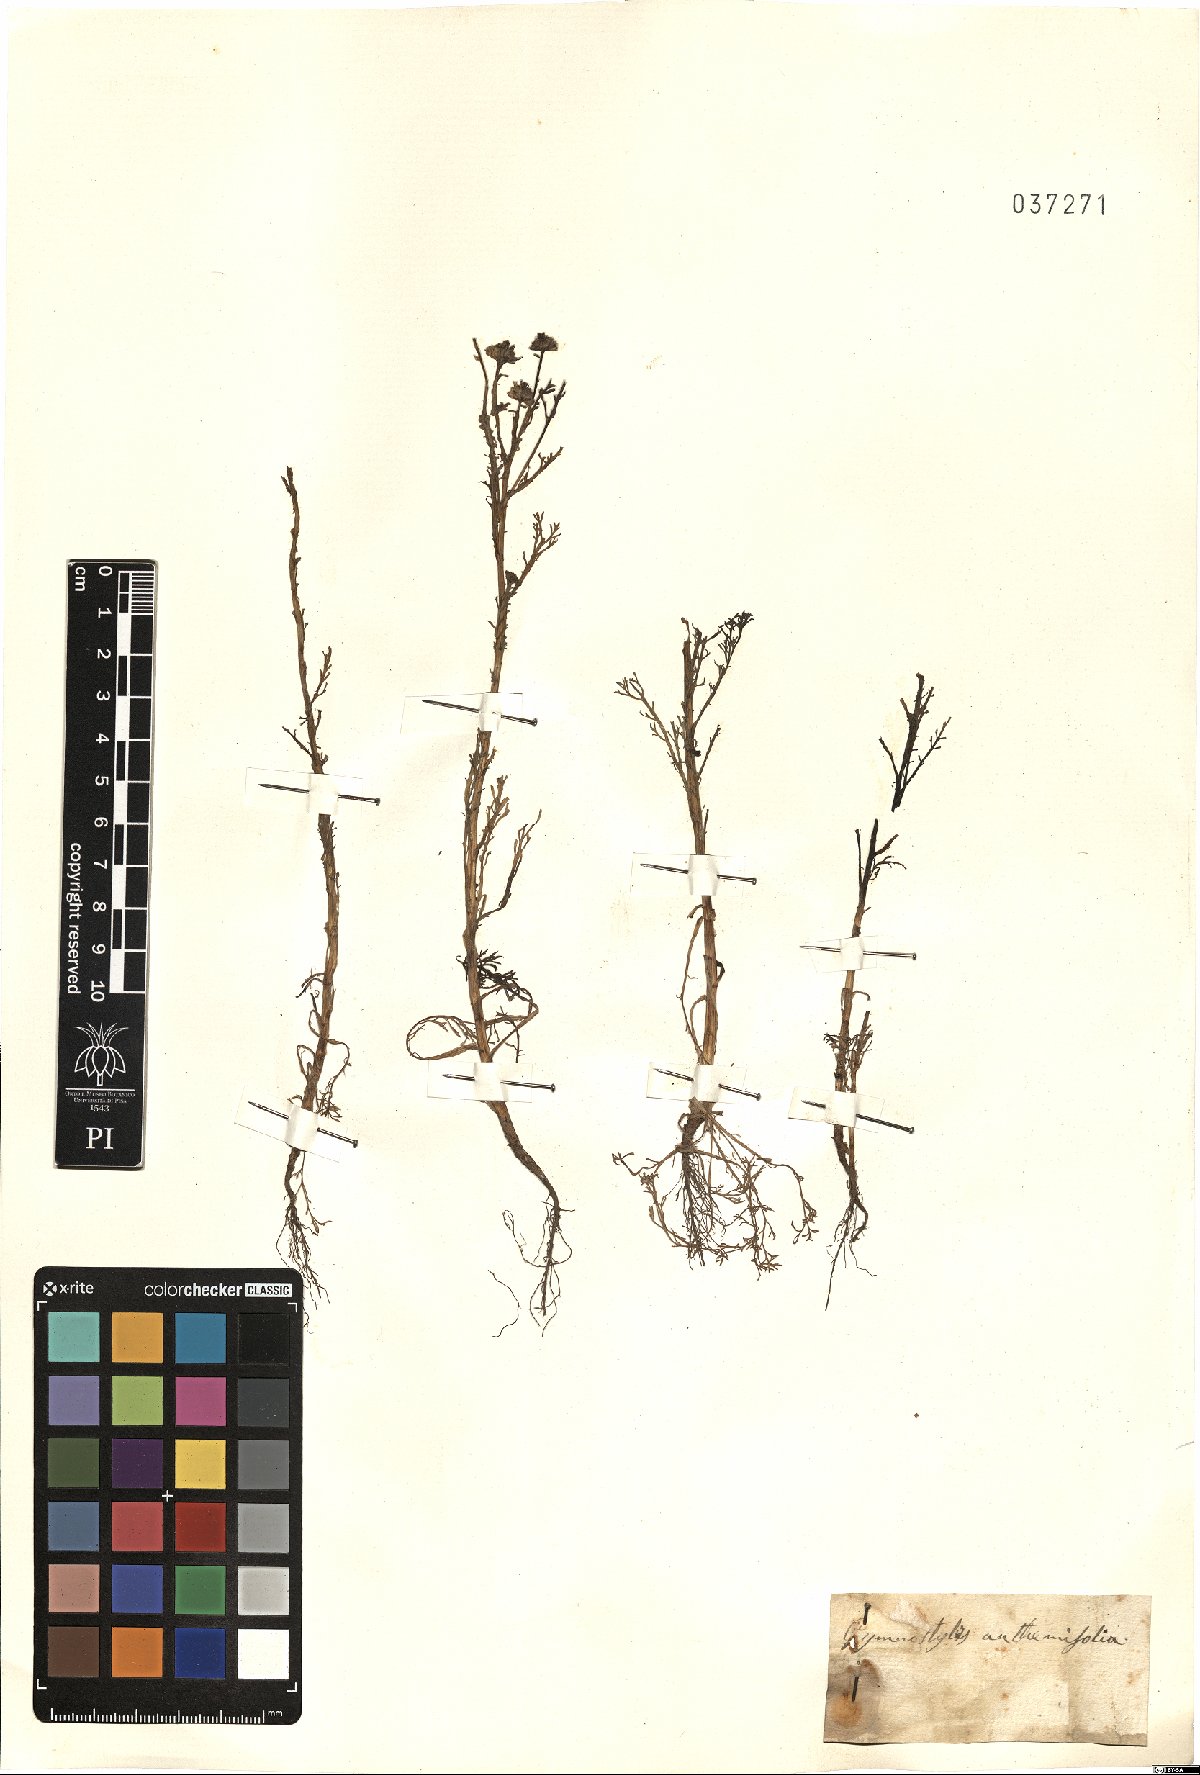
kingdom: Plantae
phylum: Tracheophyta
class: Magnoliopsida
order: Asterales
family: Asteraceae
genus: Soliva
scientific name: Soliva anthemifolia
